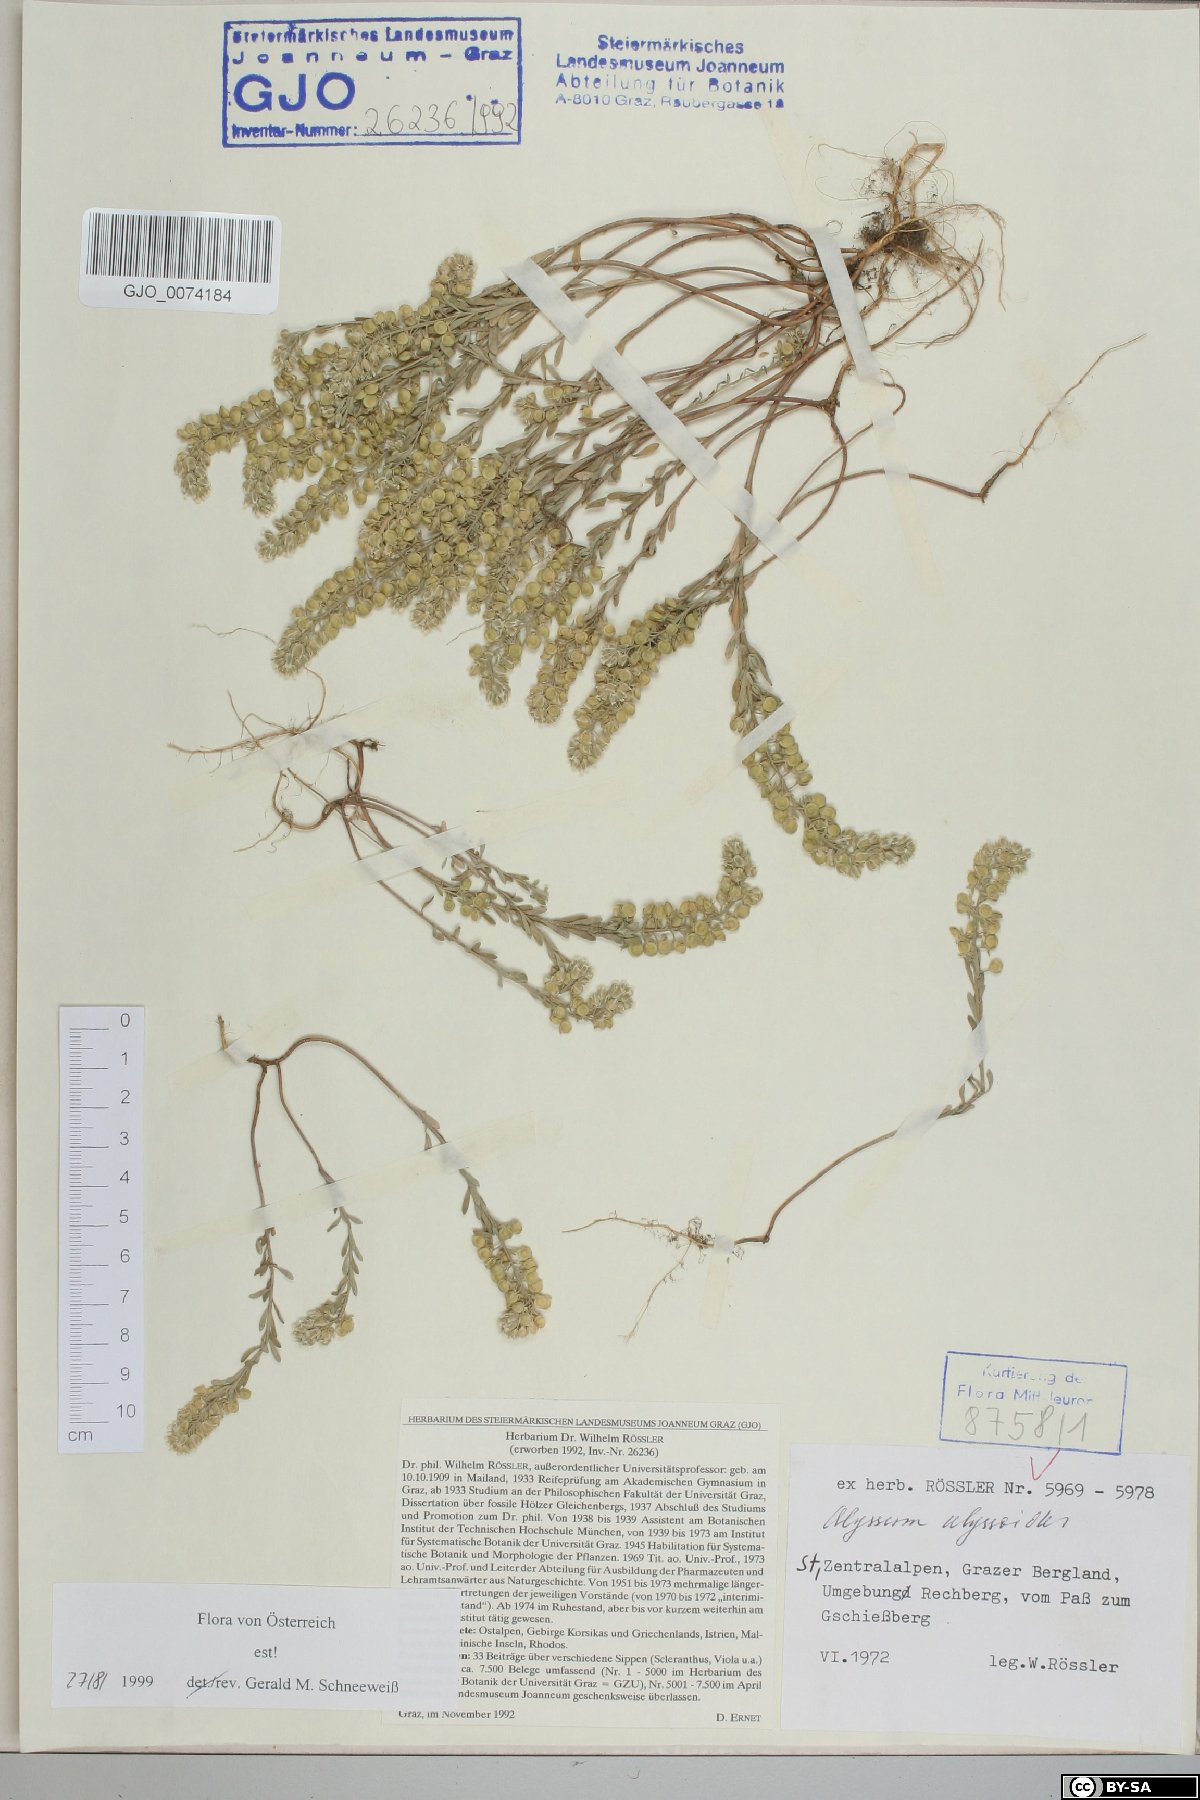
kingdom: Plantae
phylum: Tracheophyta
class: Magnoliopsida
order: Brassicales
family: Brassicaceae
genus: Alyssum
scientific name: Alyssum alyssoides
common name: Small alison
